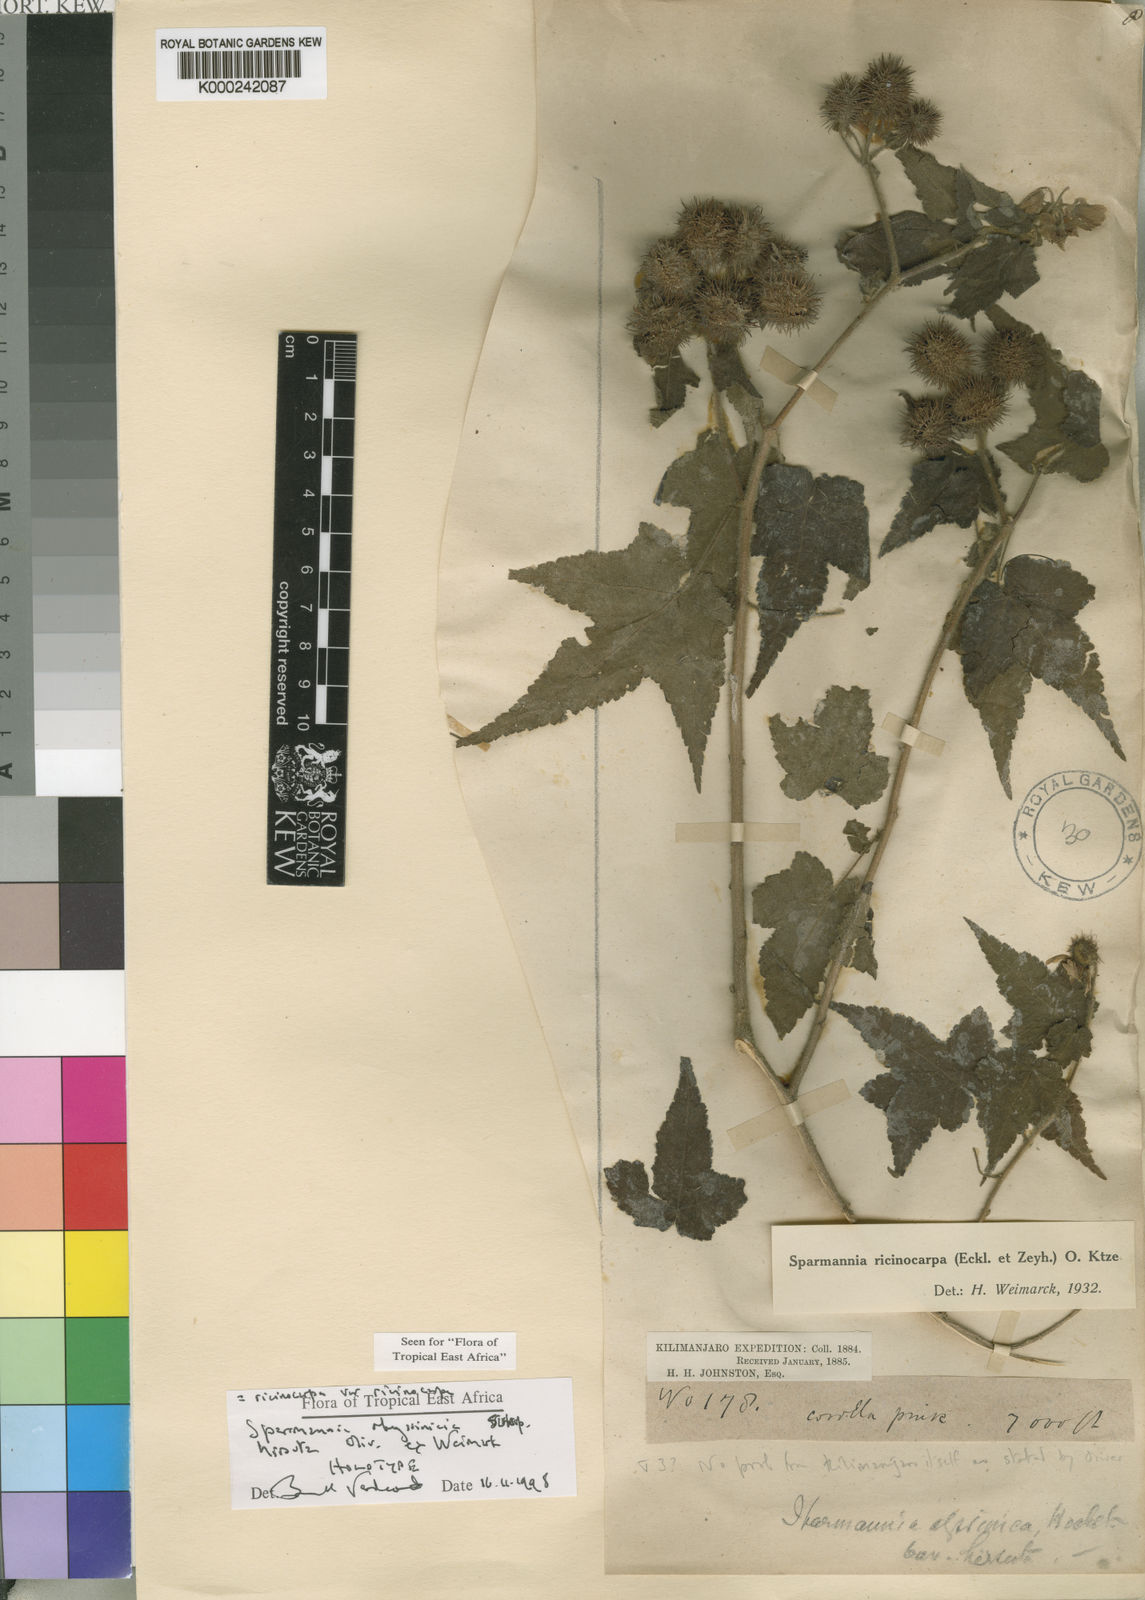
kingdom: Plantae
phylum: Tracheophyta
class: Magnoliopsida
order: Malvales
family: Malvaceae
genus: Sparrmannia
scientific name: Sparrmannia
